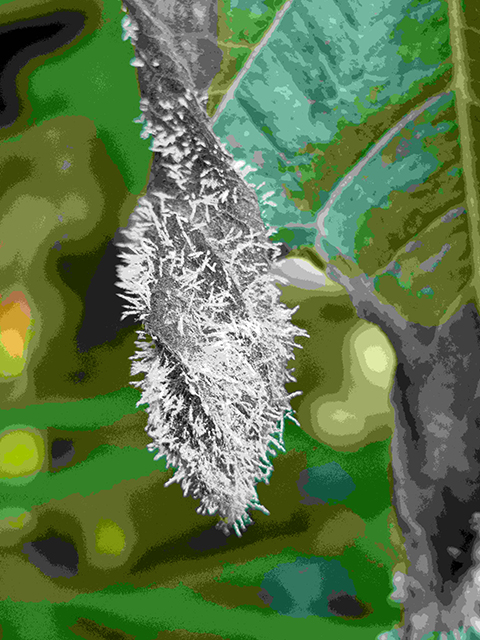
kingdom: Fungi
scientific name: Fungi
